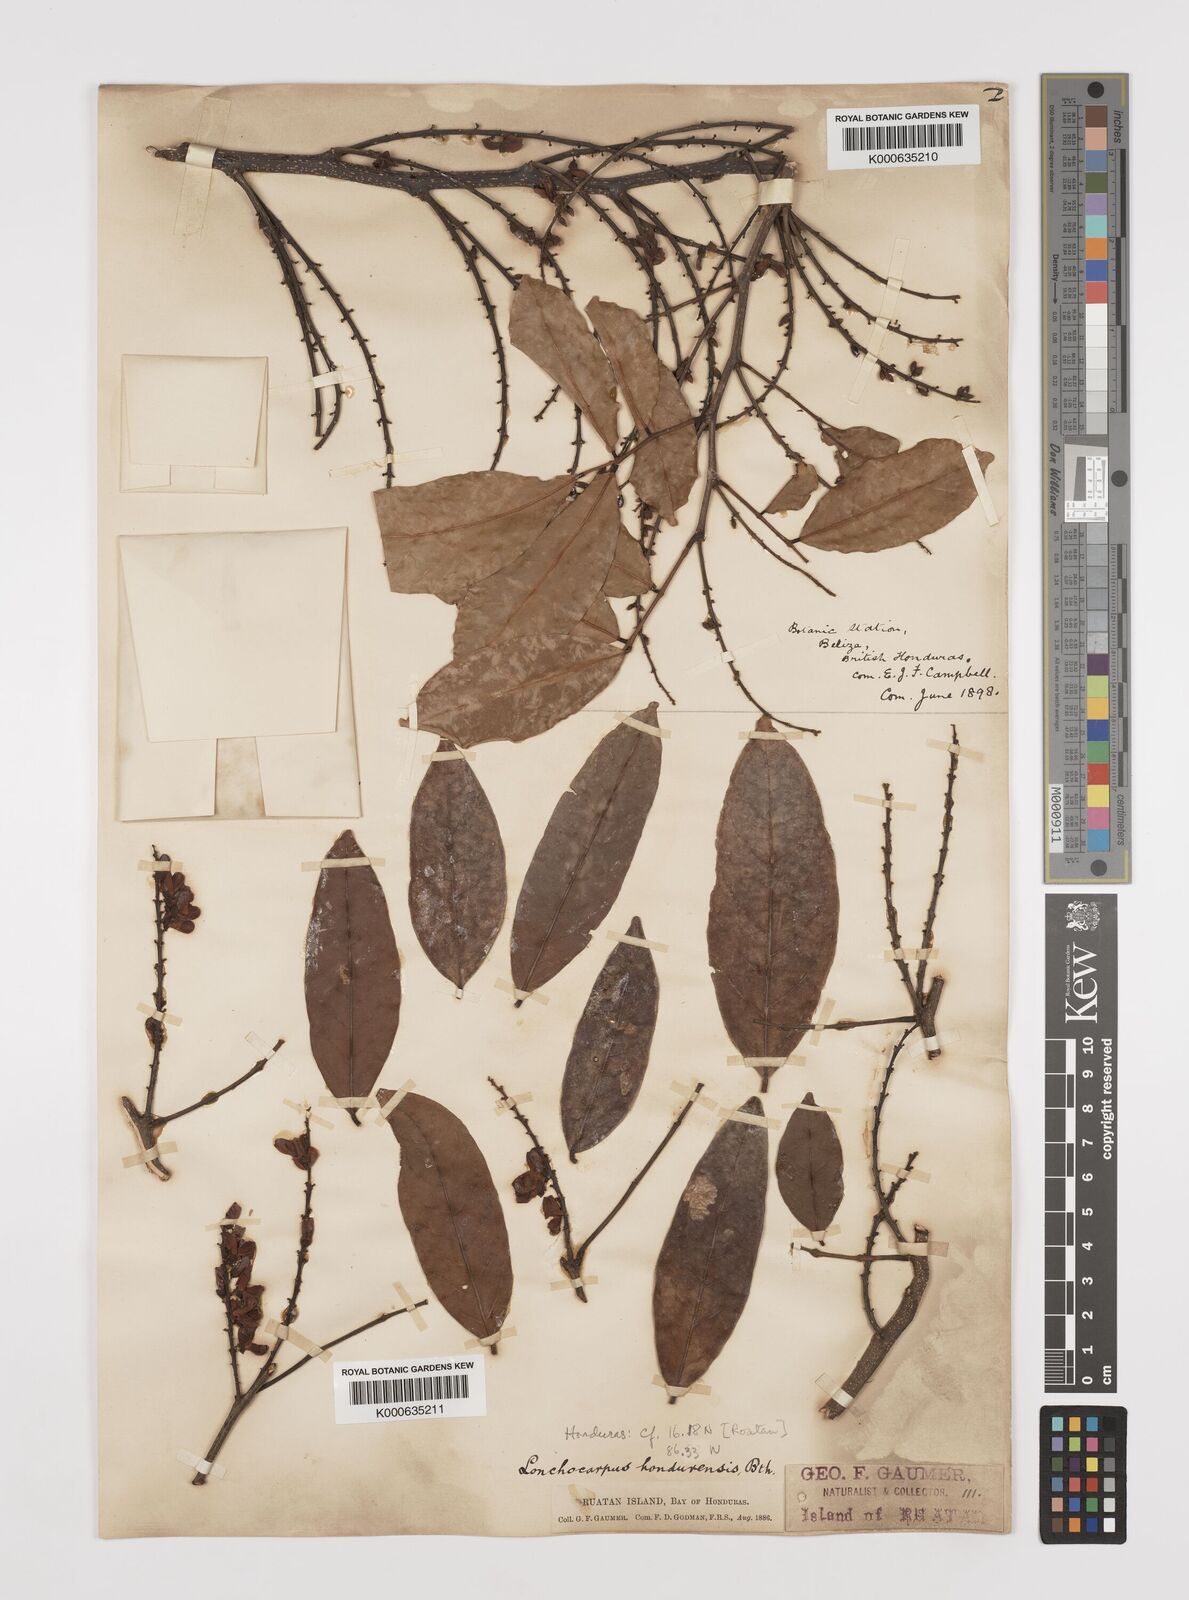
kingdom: Plantae
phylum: Tracheophyta
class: Magnoliopsida
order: Fabales
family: Fabaceae
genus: Lonchocarpus
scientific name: Lonchocarpus hondurensis
